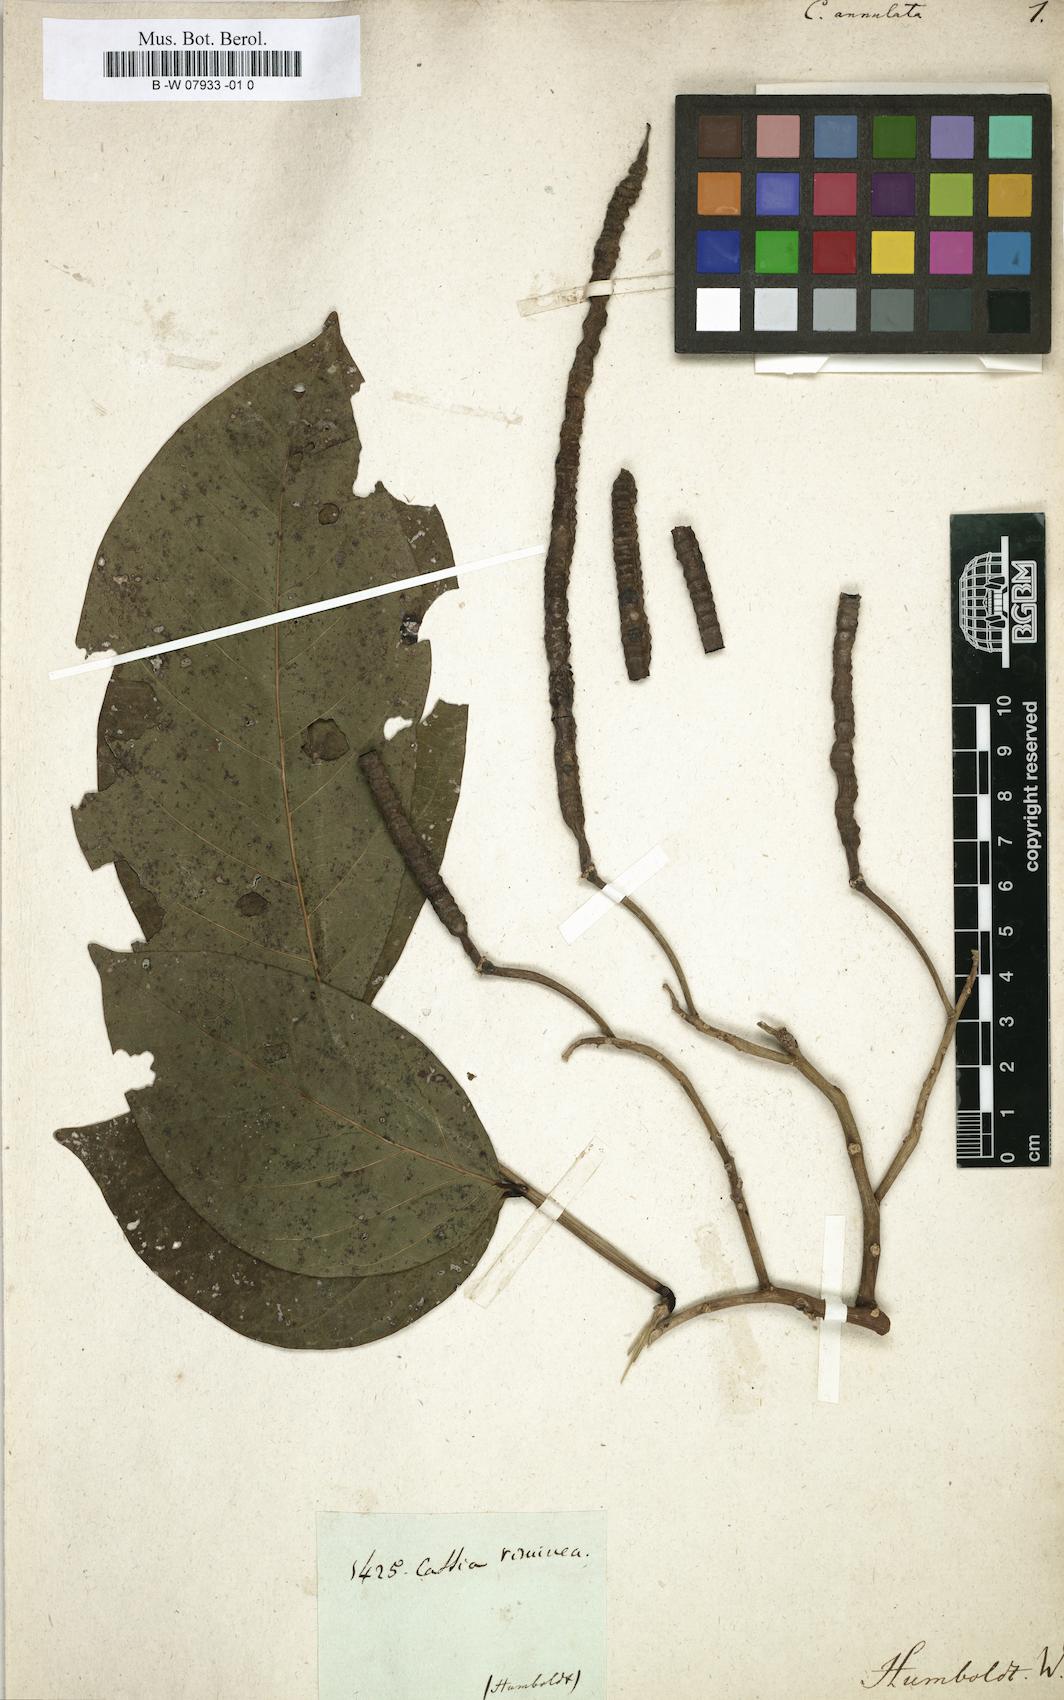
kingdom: Plantae
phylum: Tracheophyta
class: Magnoliopsida
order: Fabales
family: Fabaceae
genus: Cassia
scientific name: Cassia annulata
